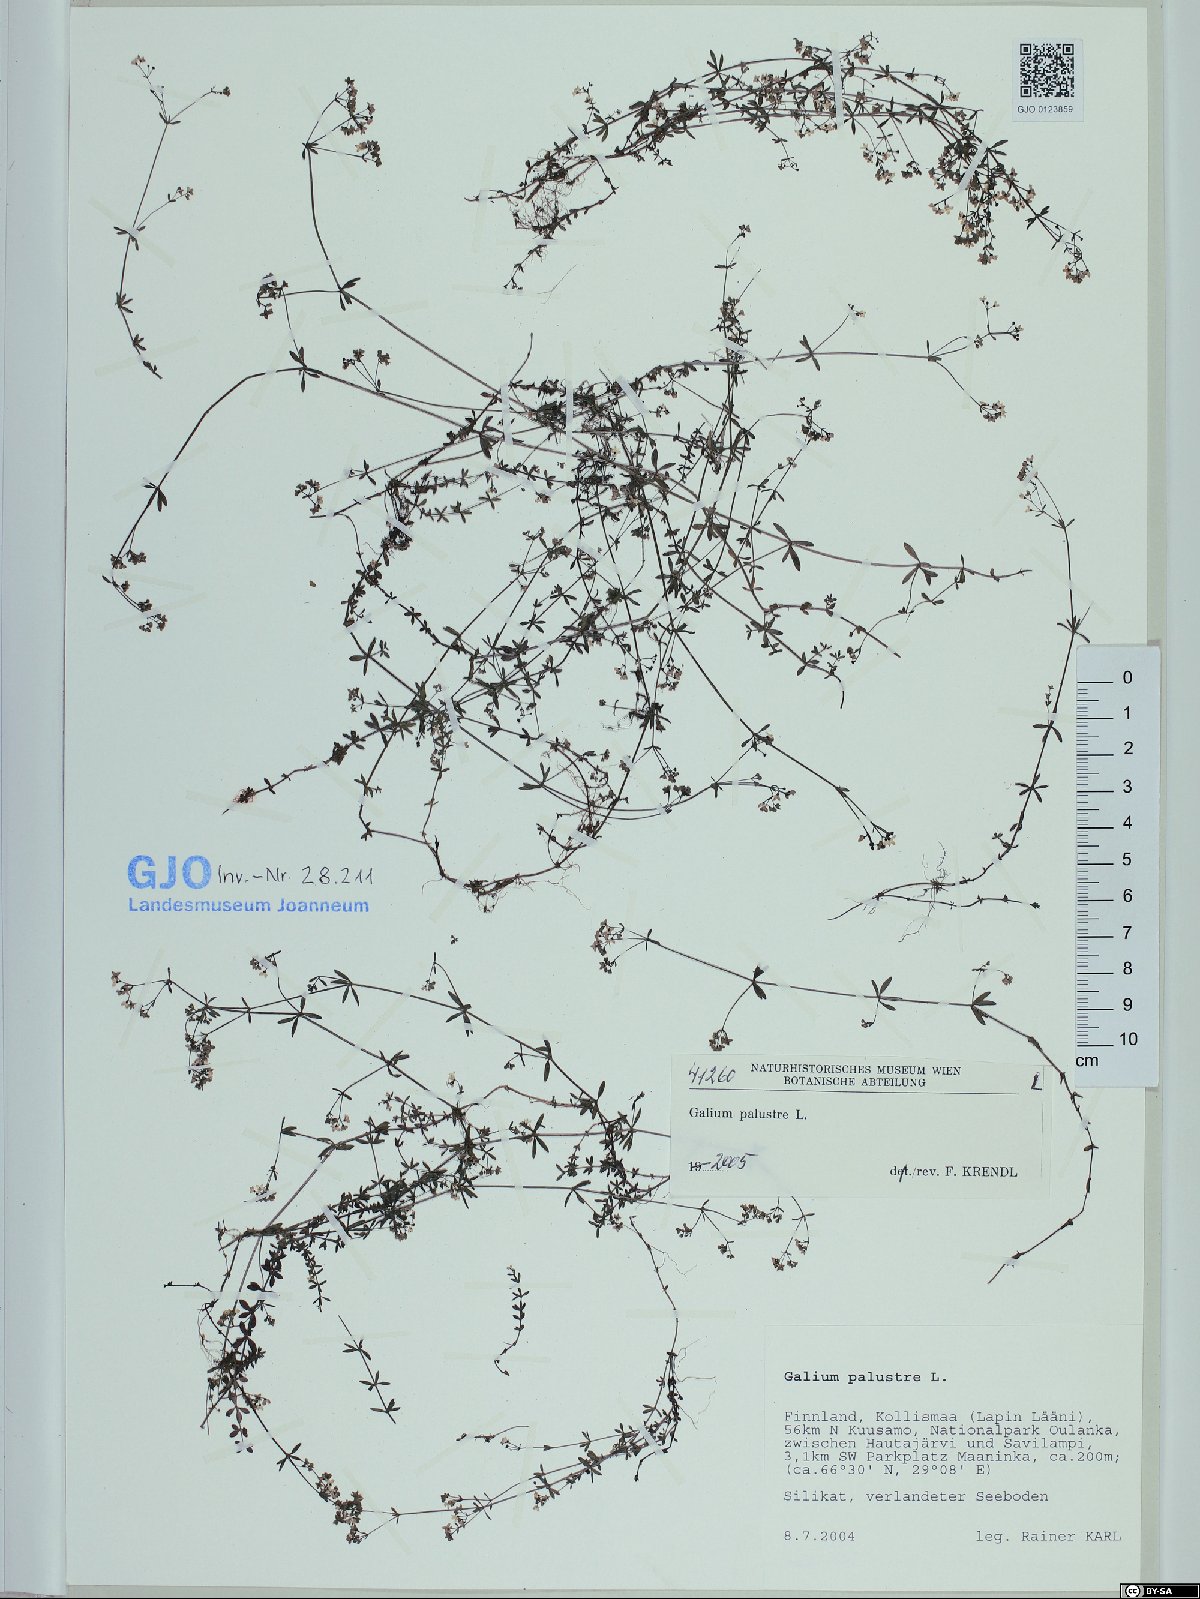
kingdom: Plantae
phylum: Tracheophyta
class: Magnoliopsida
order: Gentianales
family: Rubiaceae
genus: Galium
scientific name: Galium palustre
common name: Common marsh-bedstraw
